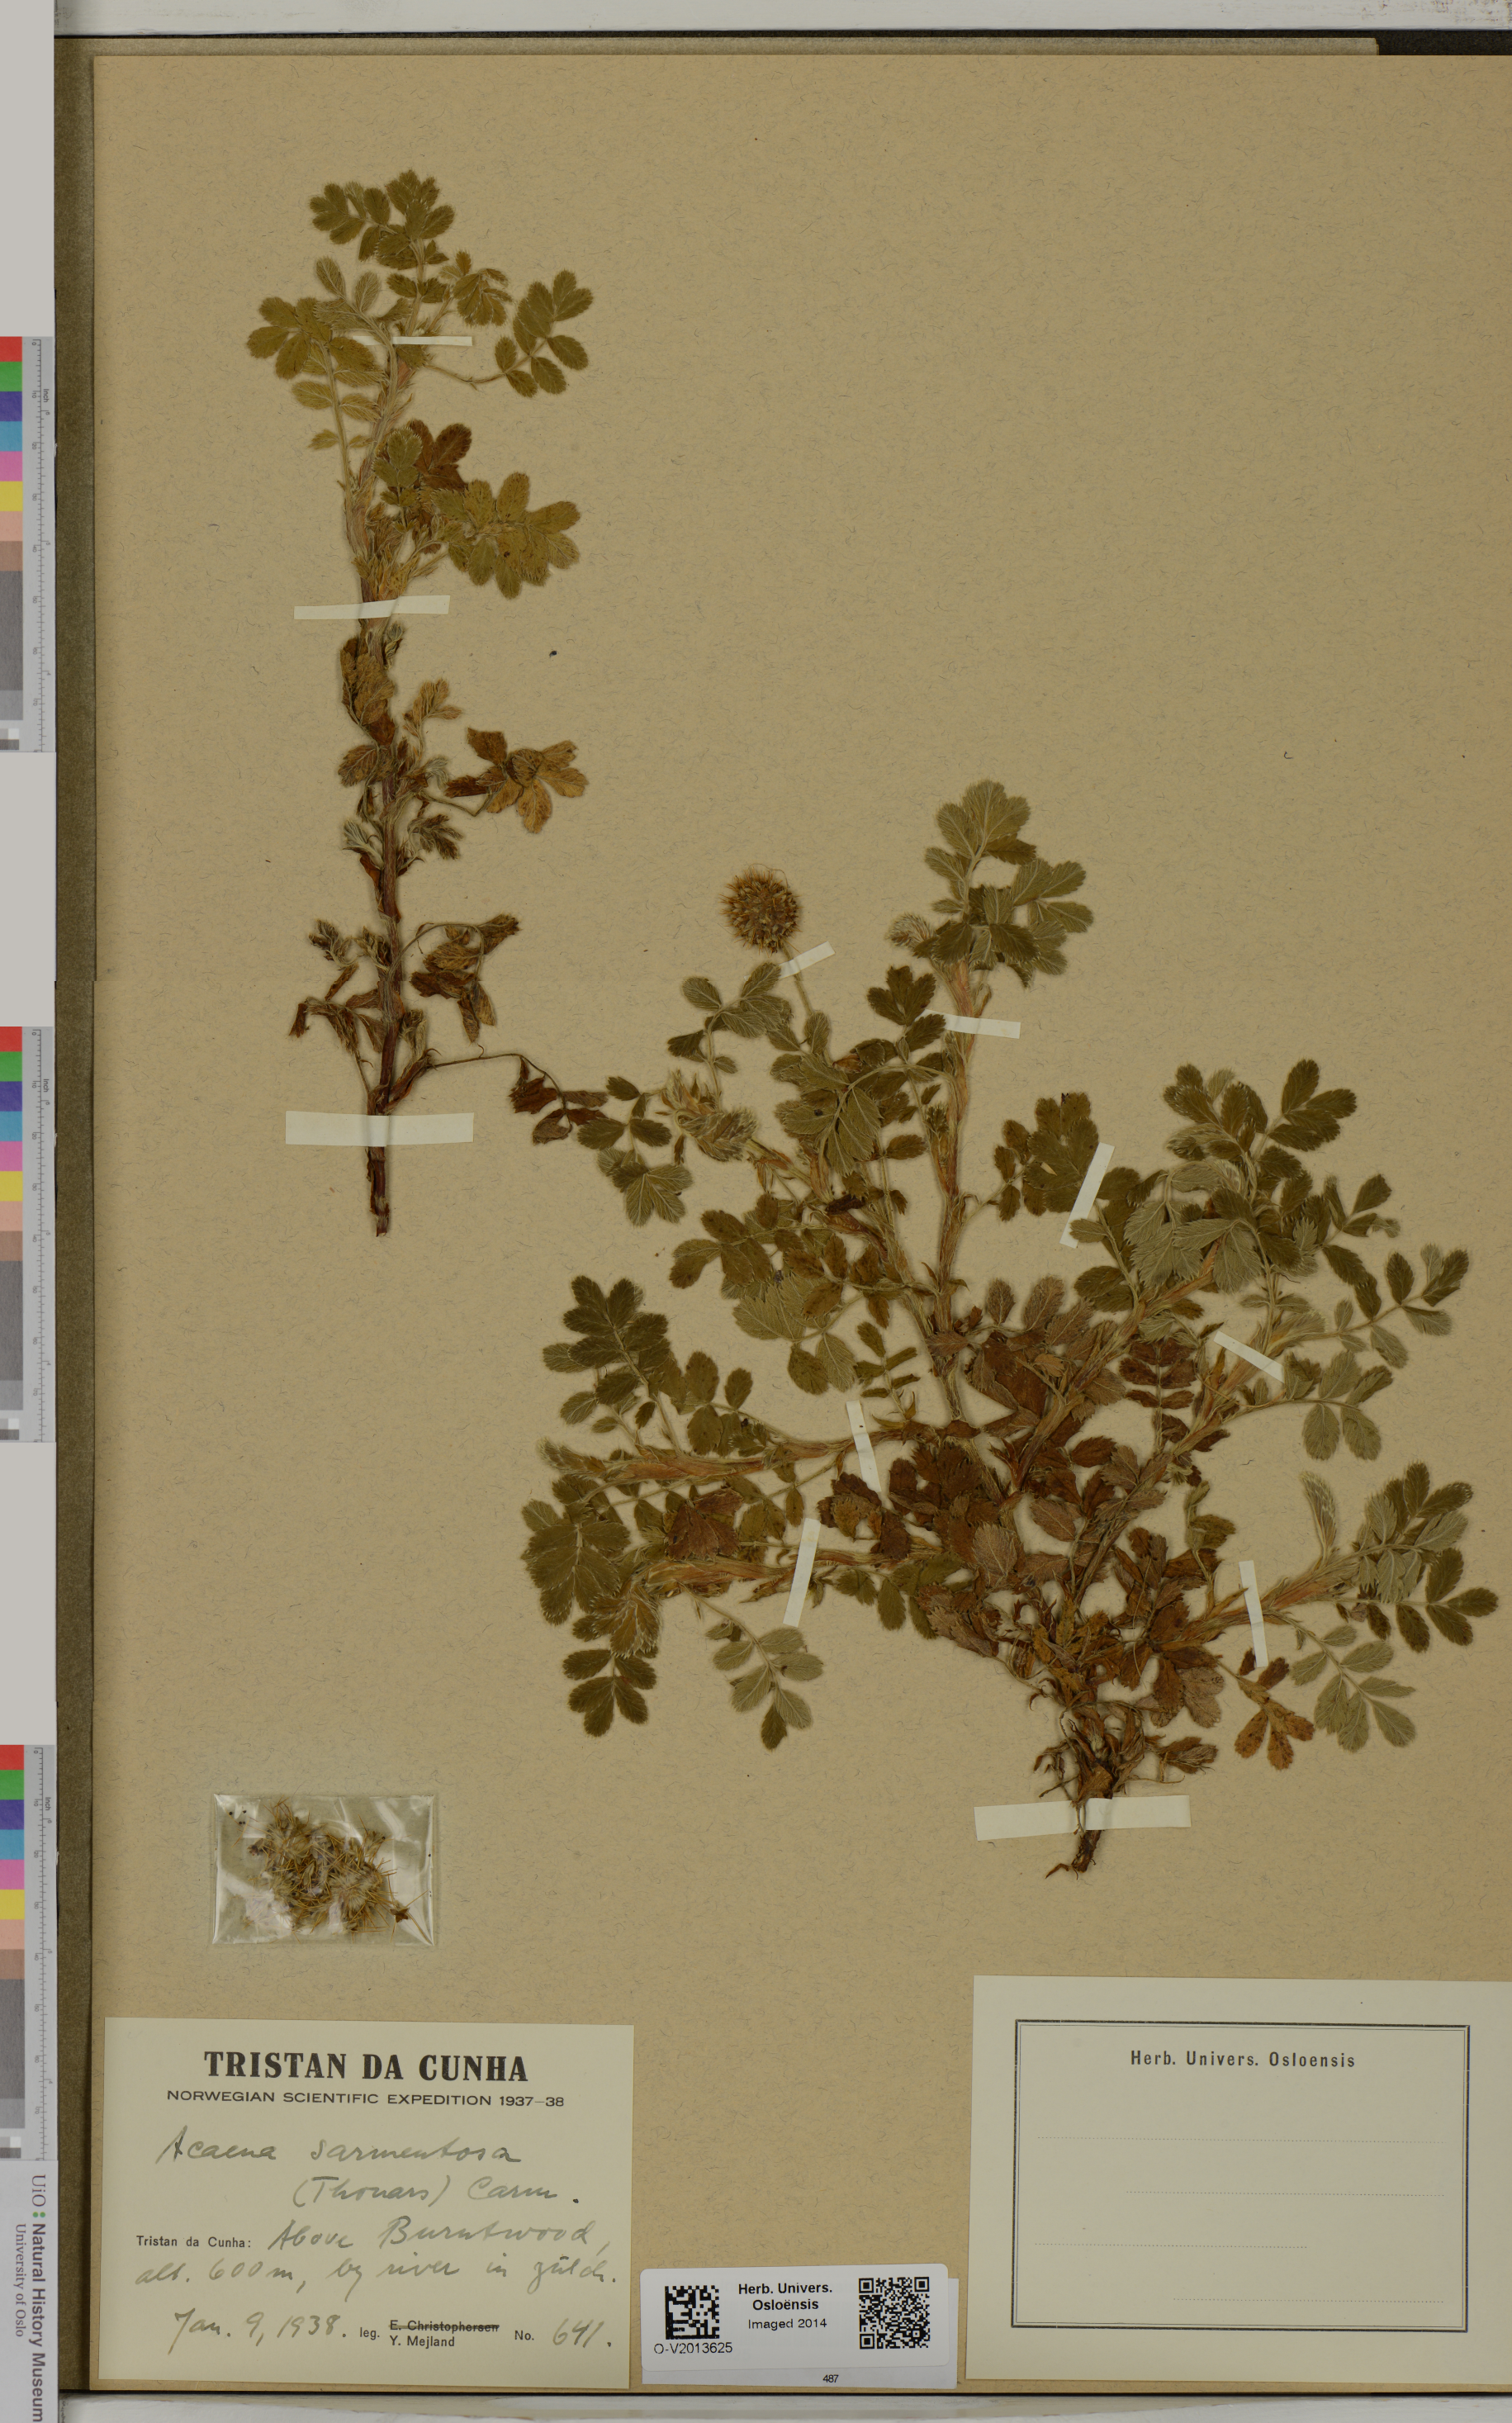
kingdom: Plantae
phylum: Tracheophyta
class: Magnoliopsida
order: Rosales
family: Rosaceae
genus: Acaena
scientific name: Acaena sarmentosa
